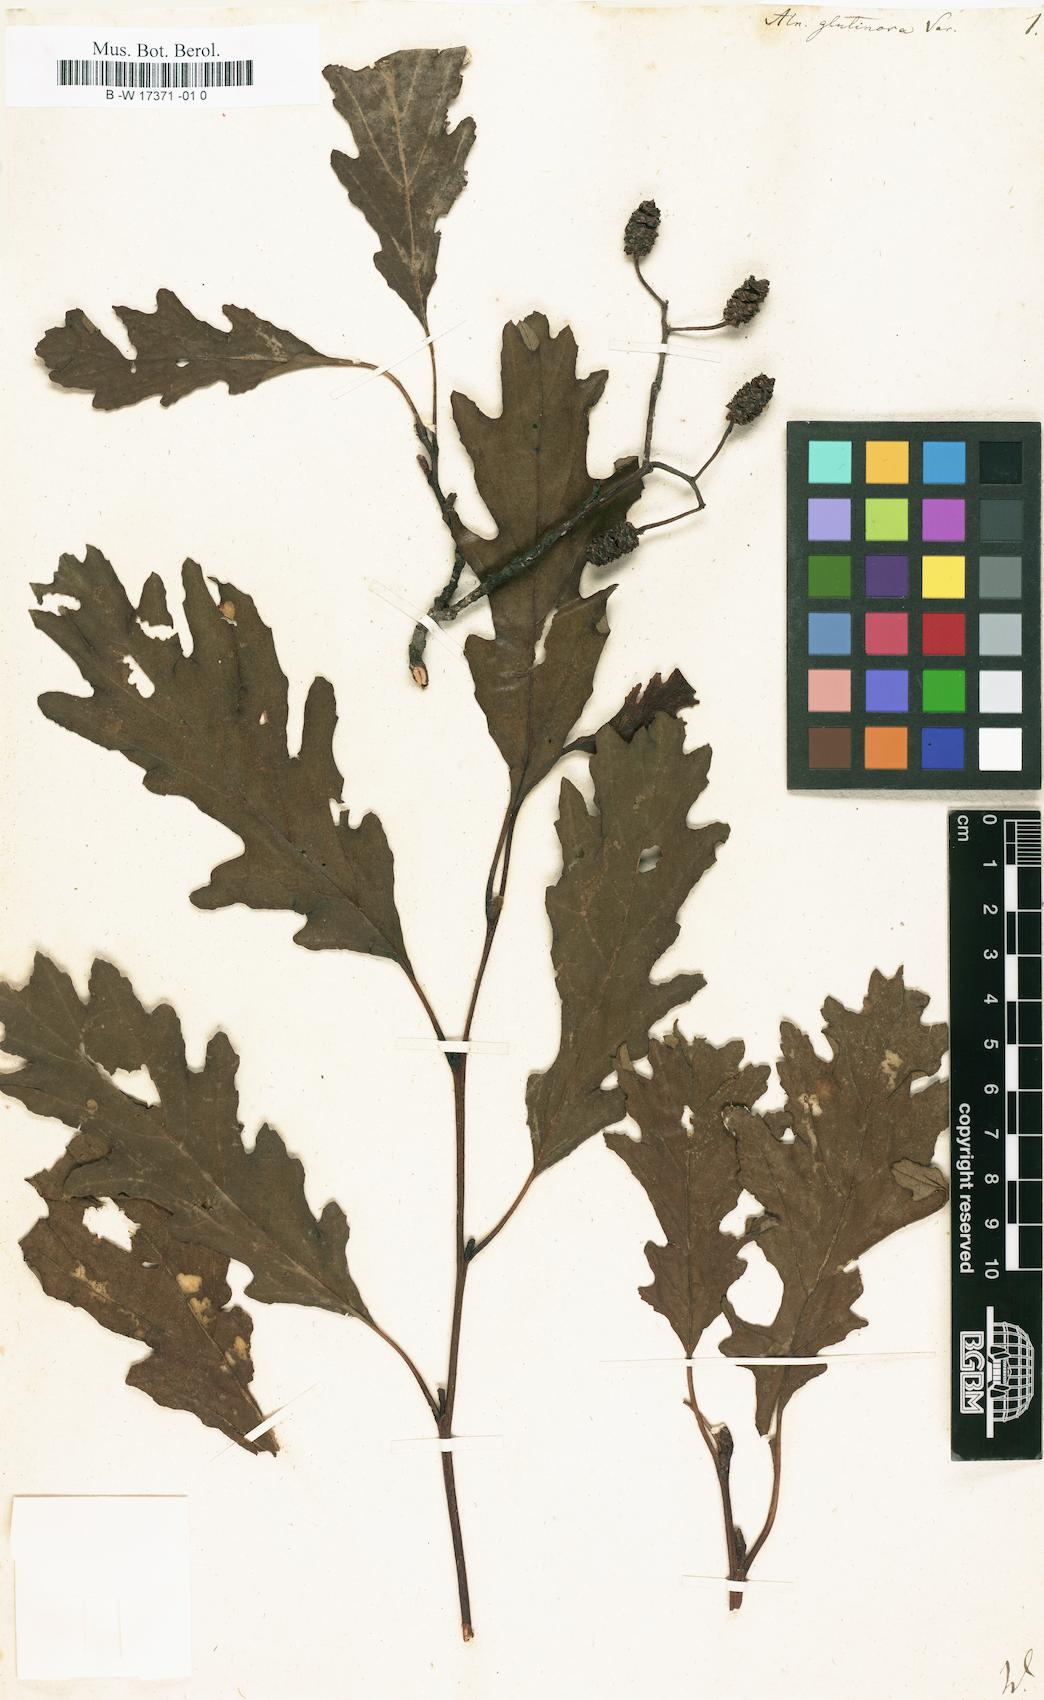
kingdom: Plantae
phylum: Tracheophyta
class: Magnoliopsida
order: Fagales
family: Betulaceae
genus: Alnus
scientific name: Alnus incana
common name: Grey alder
